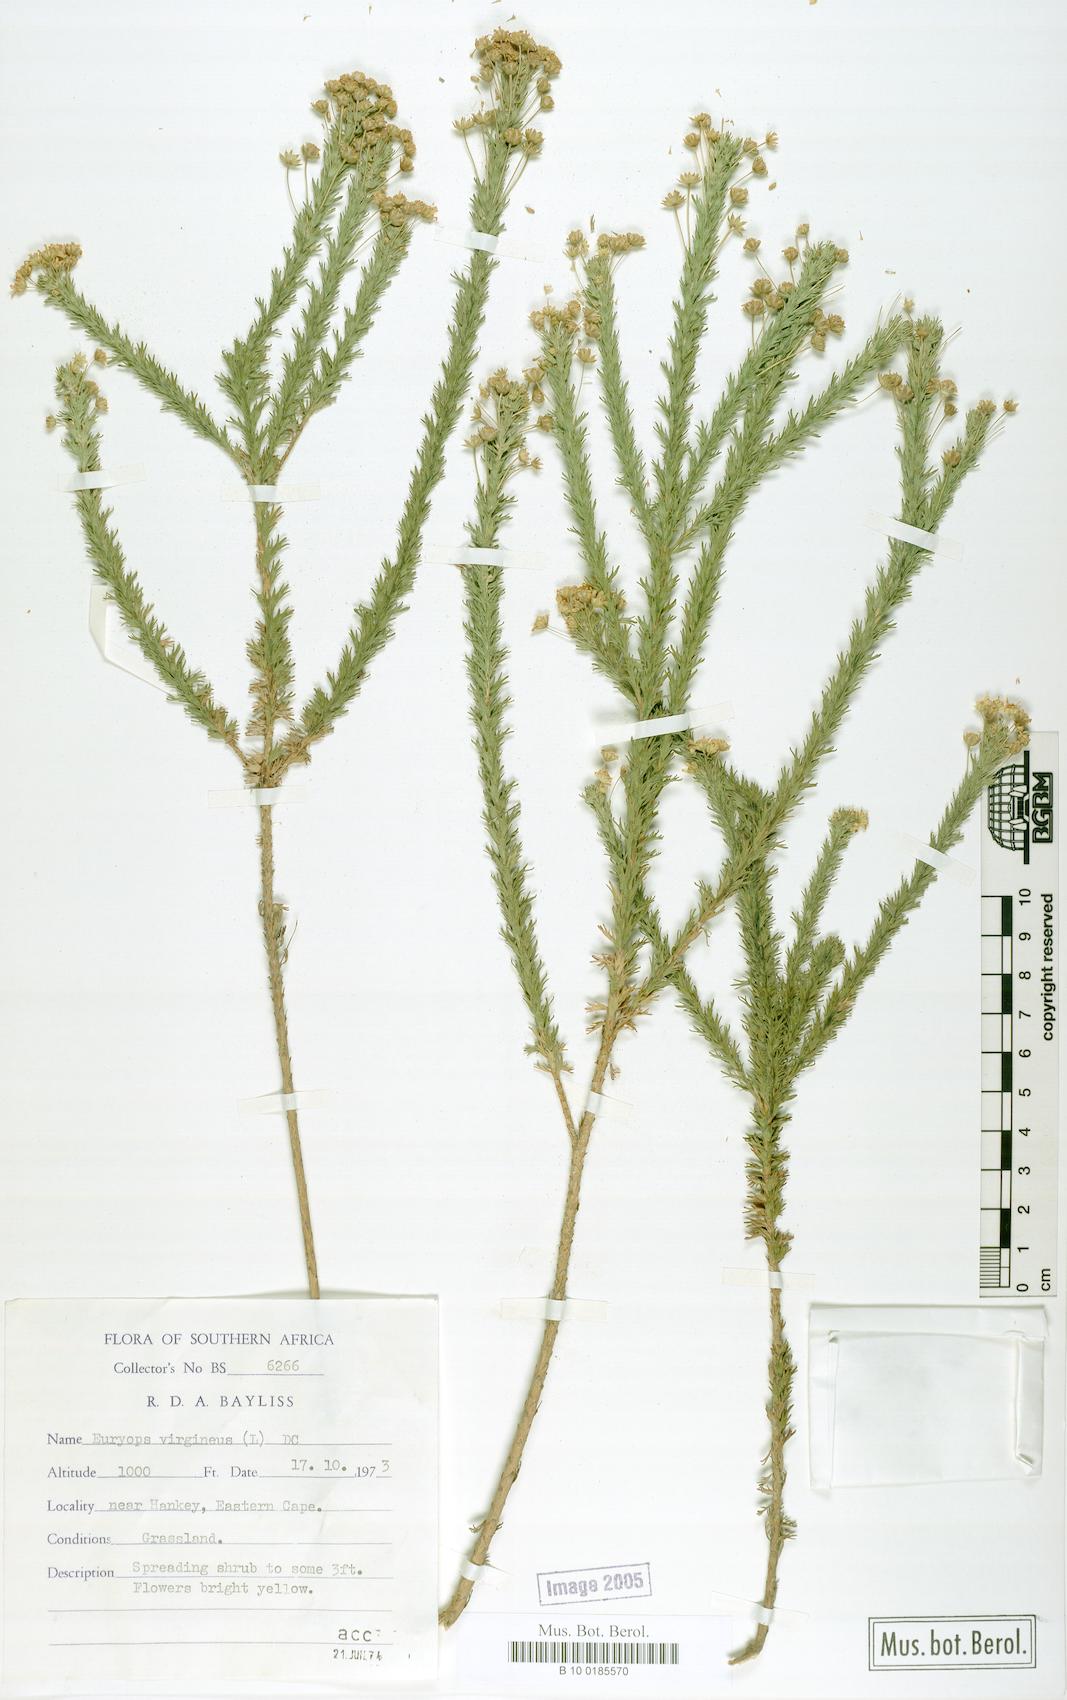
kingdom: Plantae
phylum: Tracheophyta
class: Magnoliopsida
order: Asterales
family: Asteraceae
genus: Euryops
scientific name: Euryops virgineus
